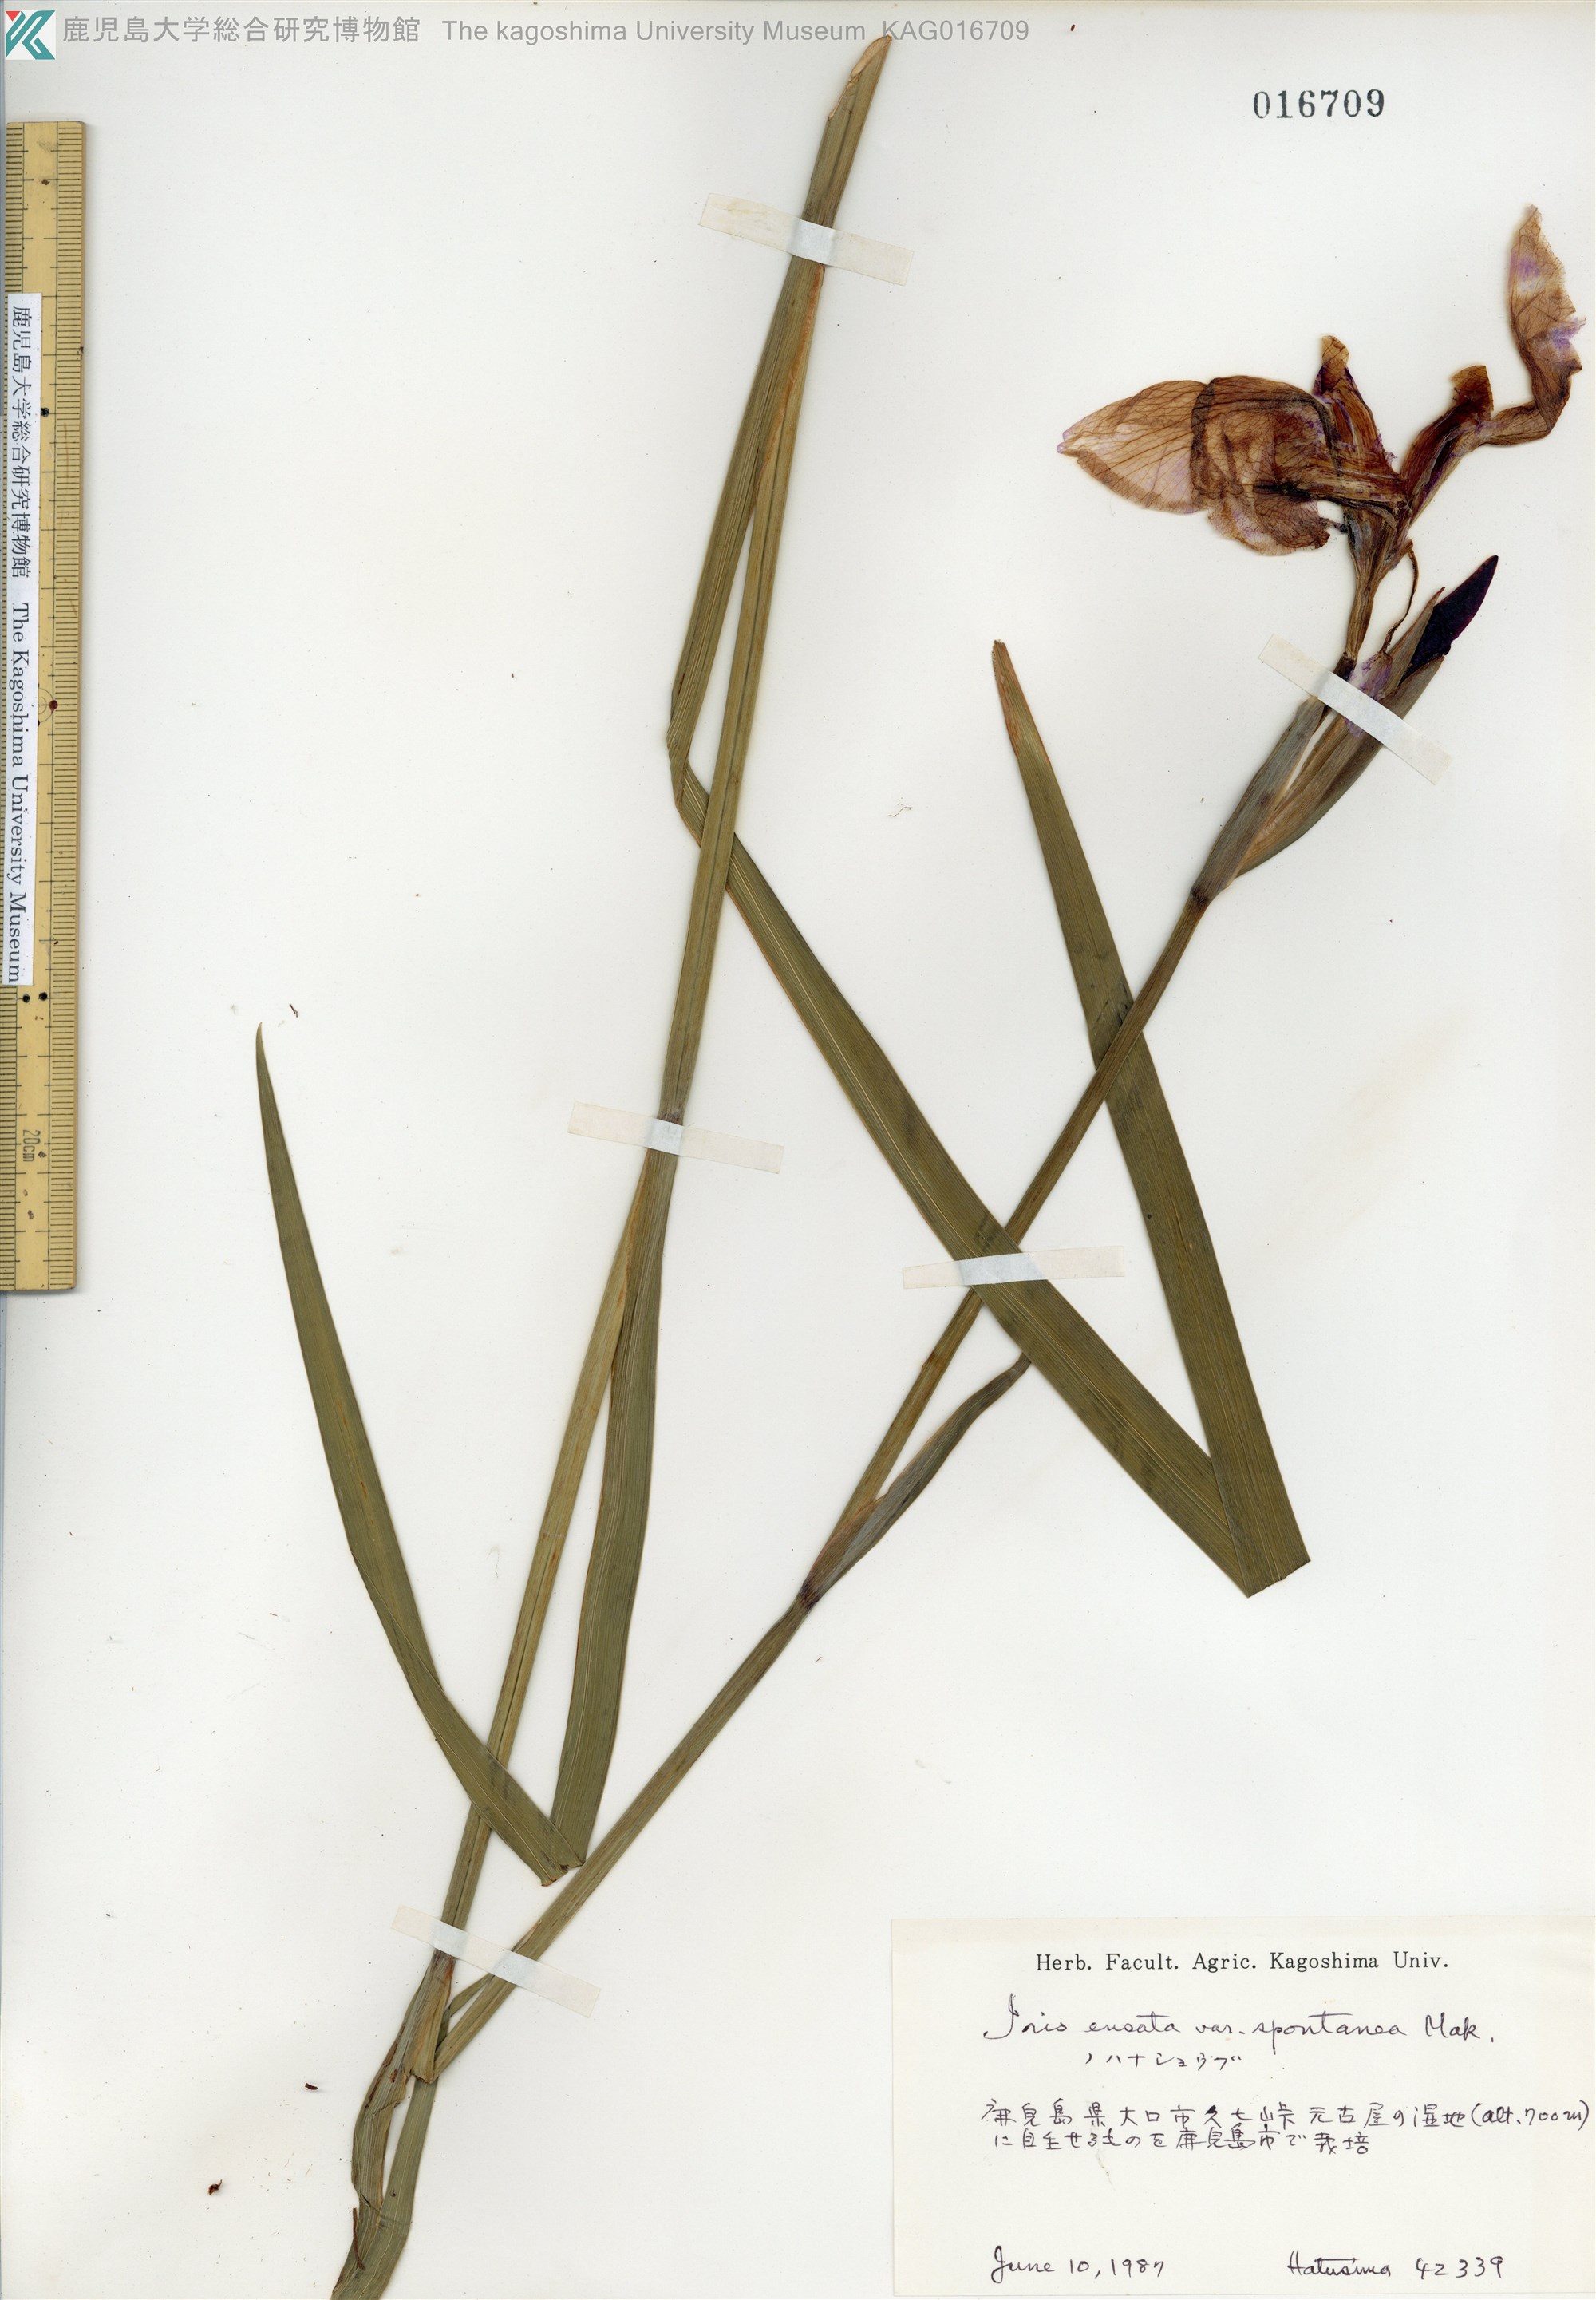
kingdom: Plantae
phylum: Tracheophyta
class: Liliopsida
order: Asparagales
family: Iridaceae
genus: Iris
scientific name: Iris ensata
